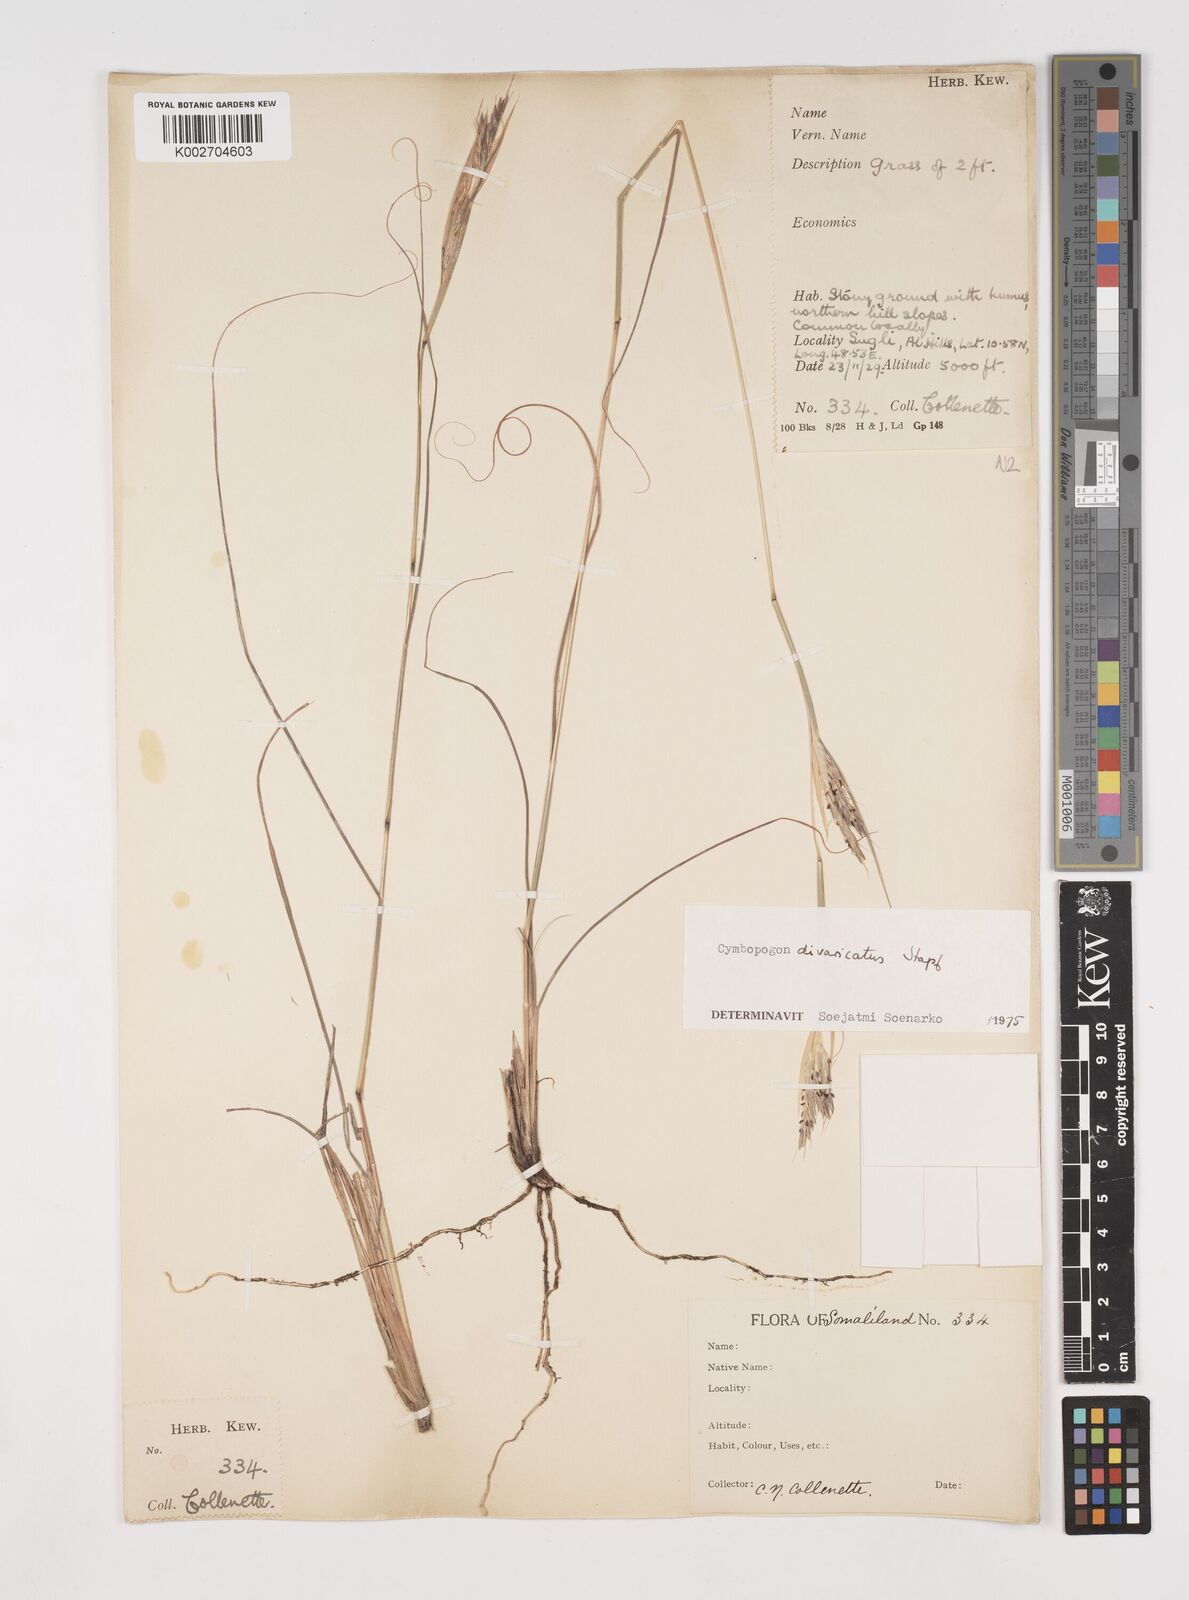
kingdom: Plantae
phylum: Tracheophyta
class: Liliopsida
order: Poales
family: Poaceae
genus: Cymbopogon
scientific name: Cymbopogon commutatus
